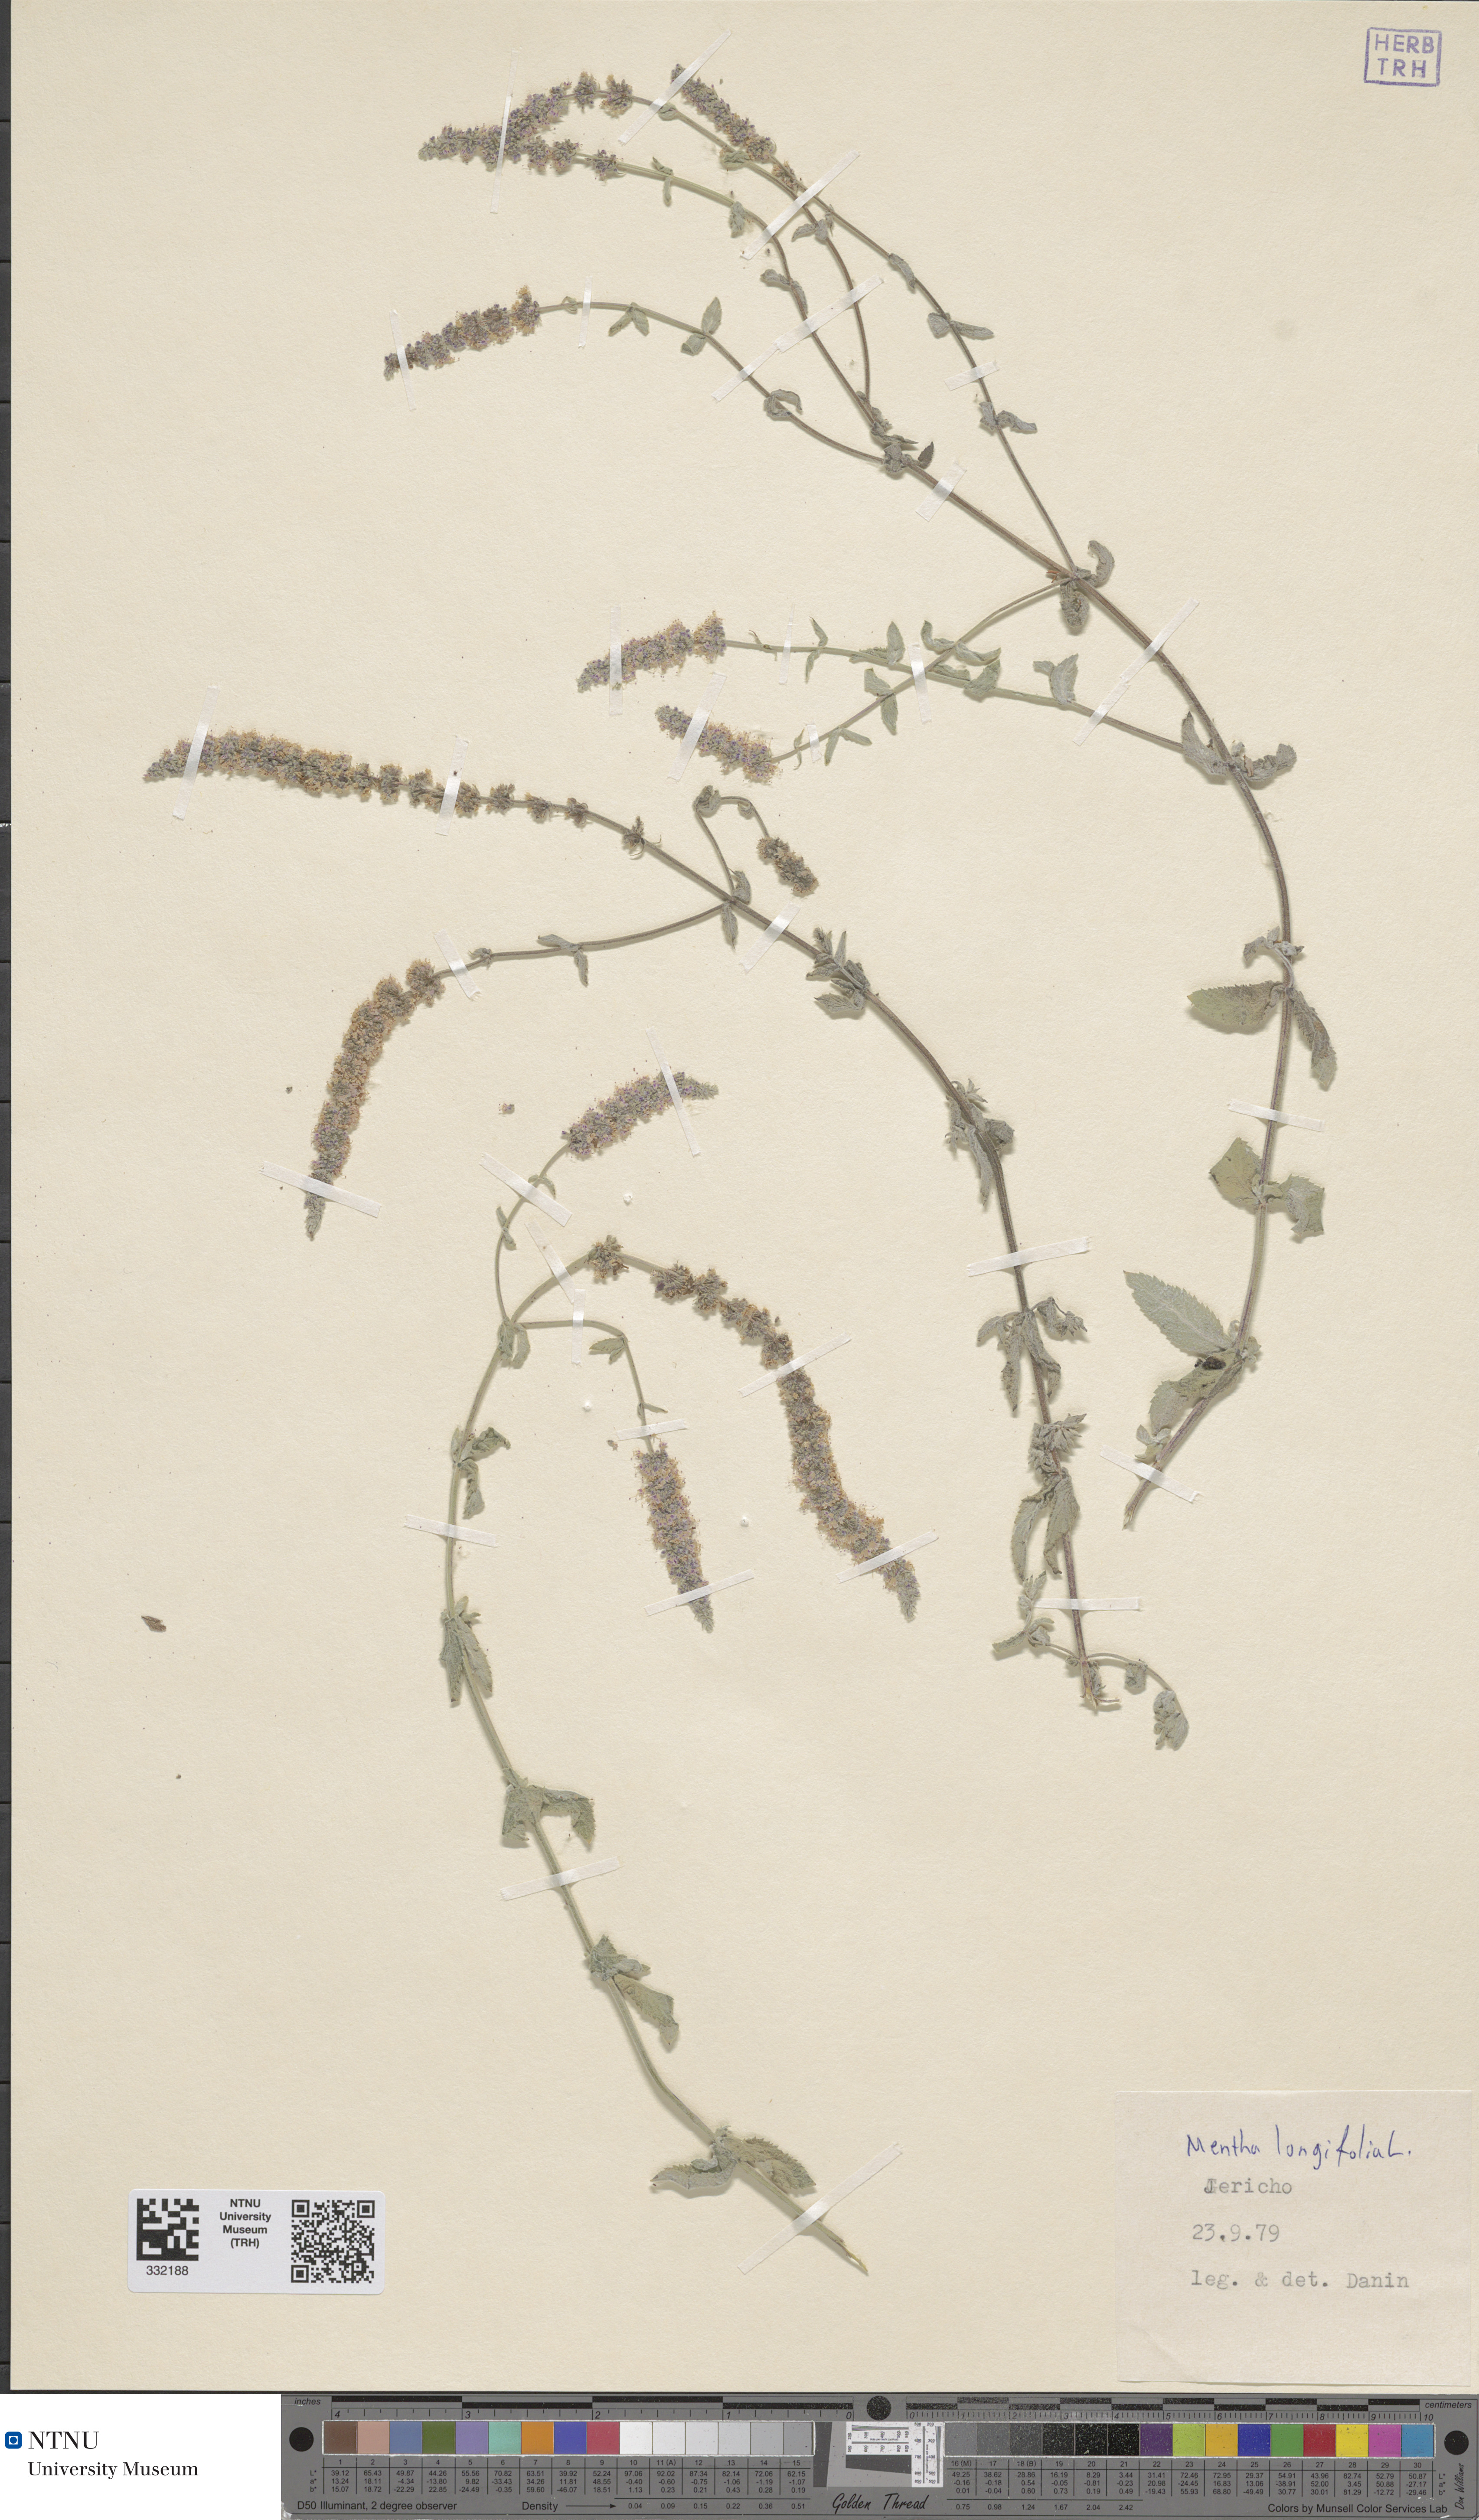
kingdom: Plantae
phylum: Tracheophyta
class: Magnoliopsida
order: Lamiales
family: Lamiaceae
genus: Mentha
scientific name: Mentha longifolia
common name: Horse mint
